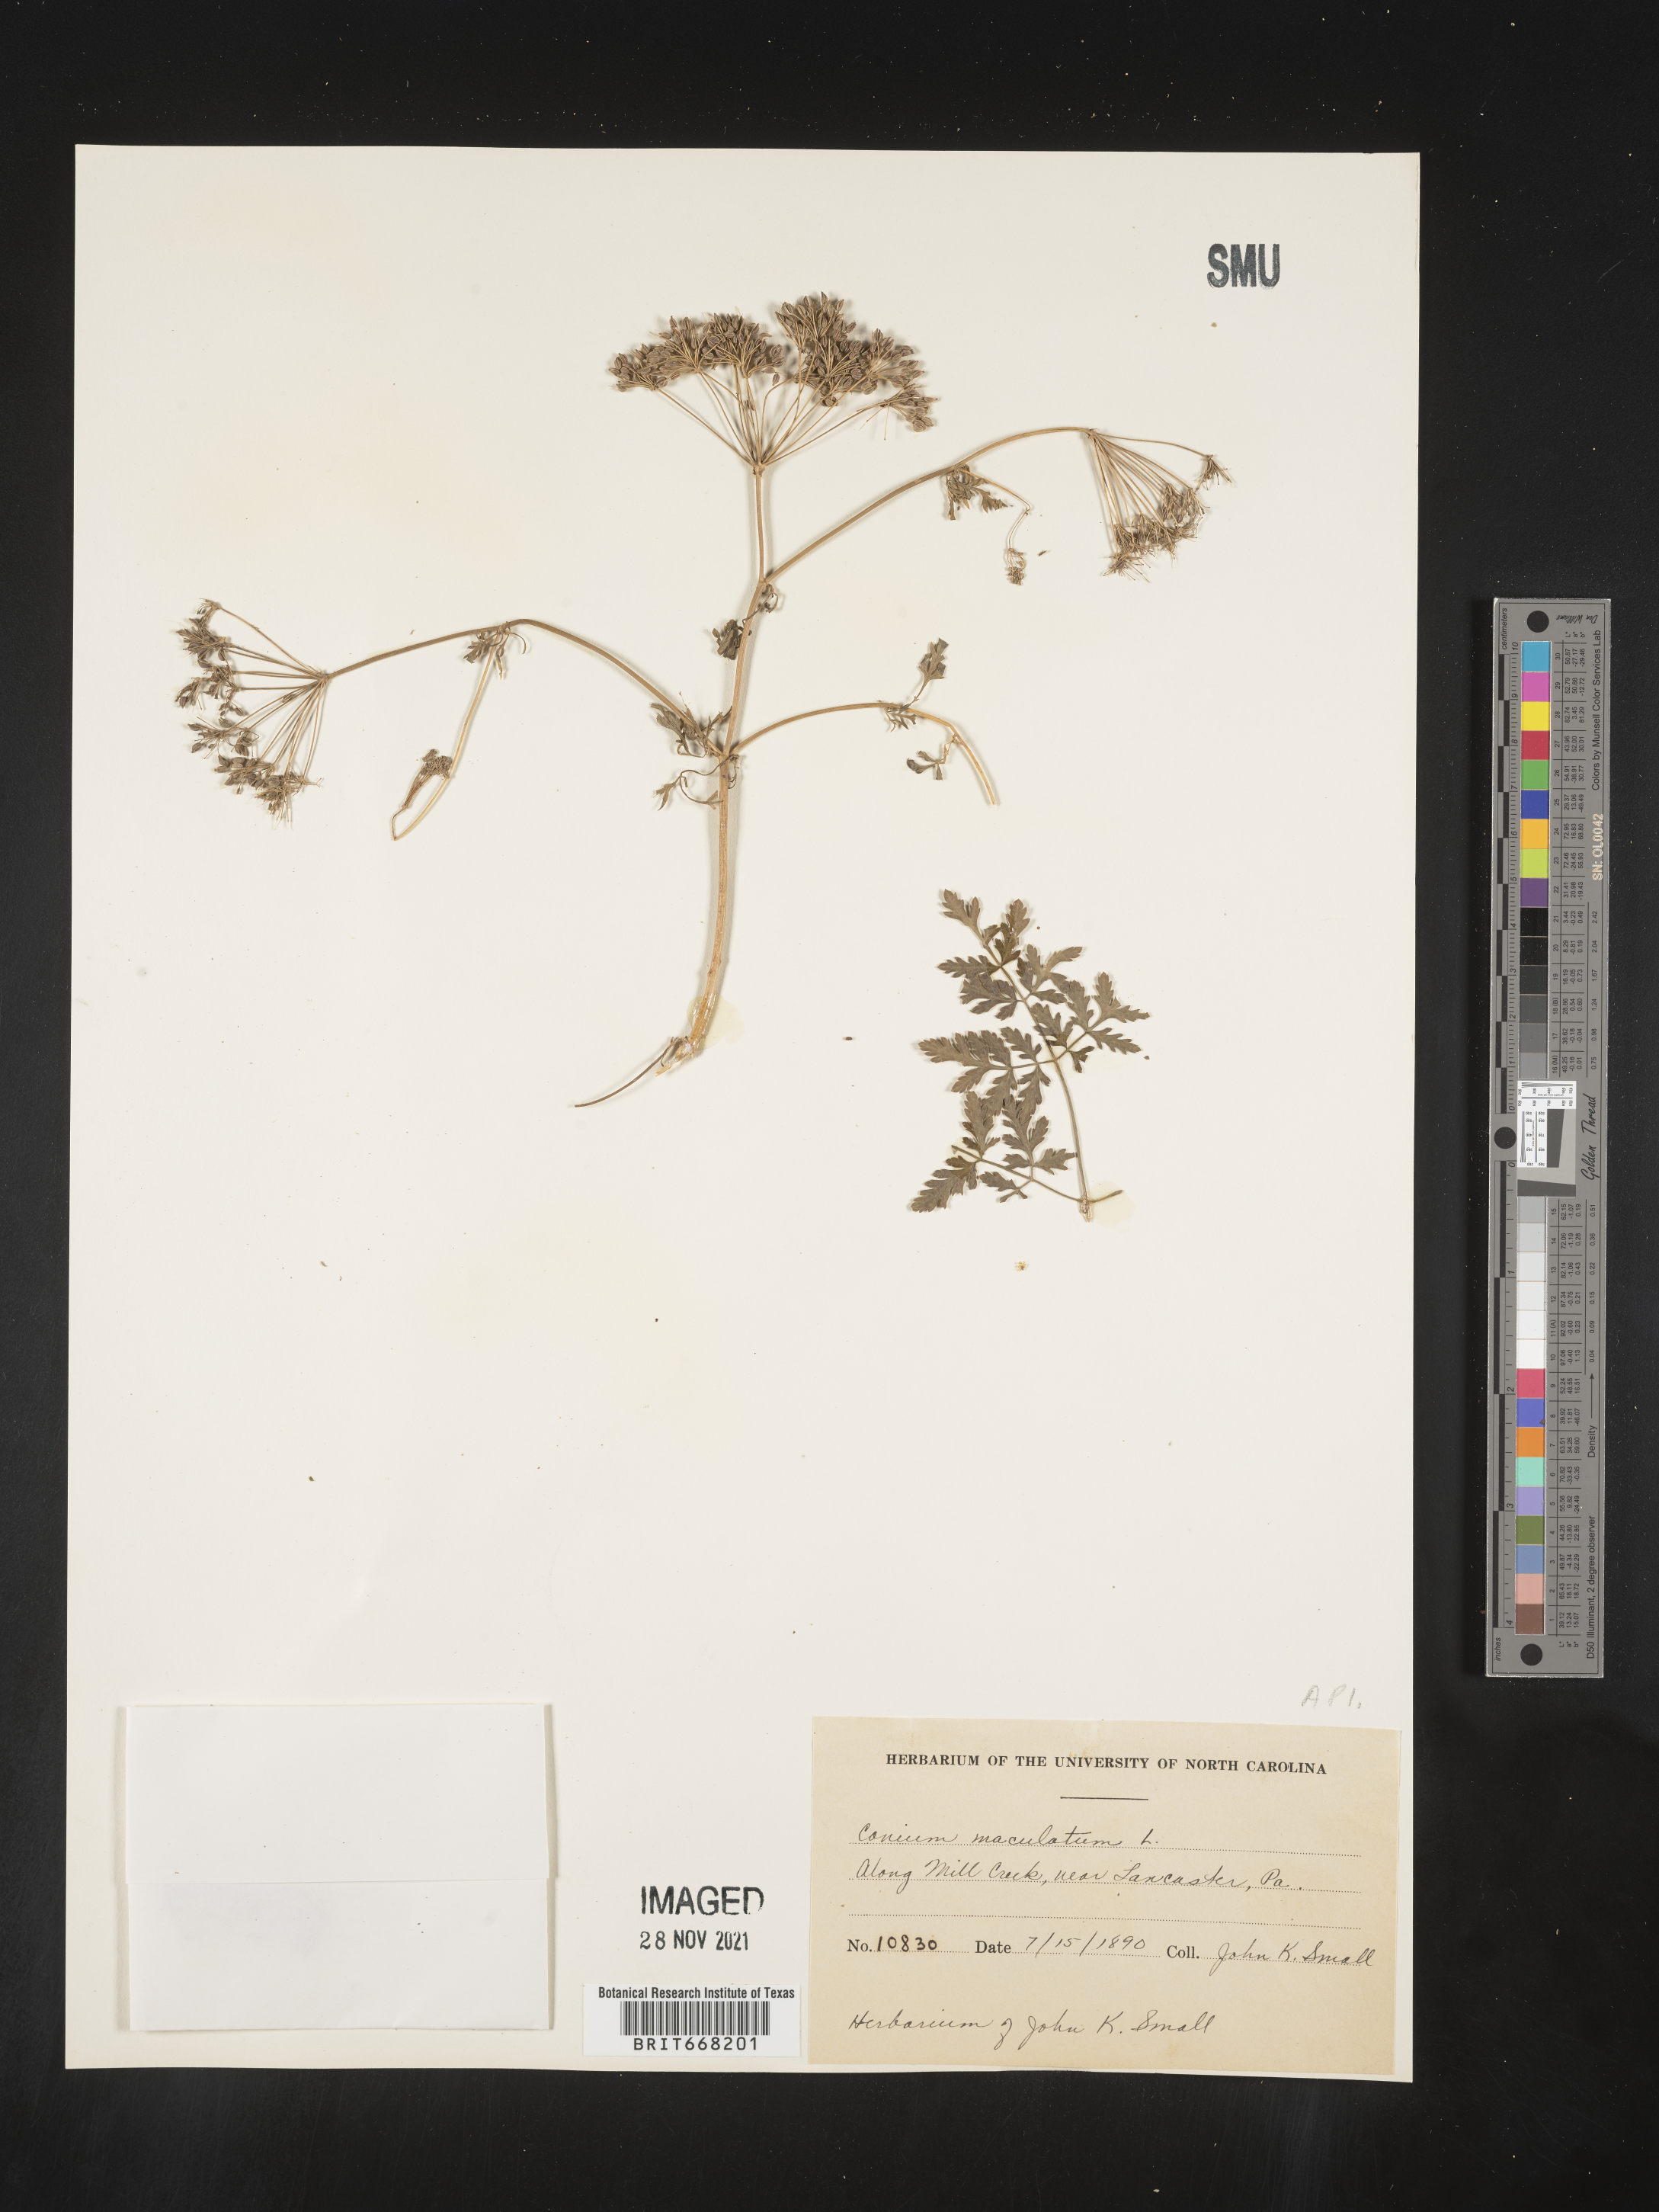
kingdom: Plantae
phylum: Tracheophyta
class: Magnoliopsida
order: Apiales
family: Apiaceae
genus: Conium
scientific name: Conium maculatum
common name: Hemlock
